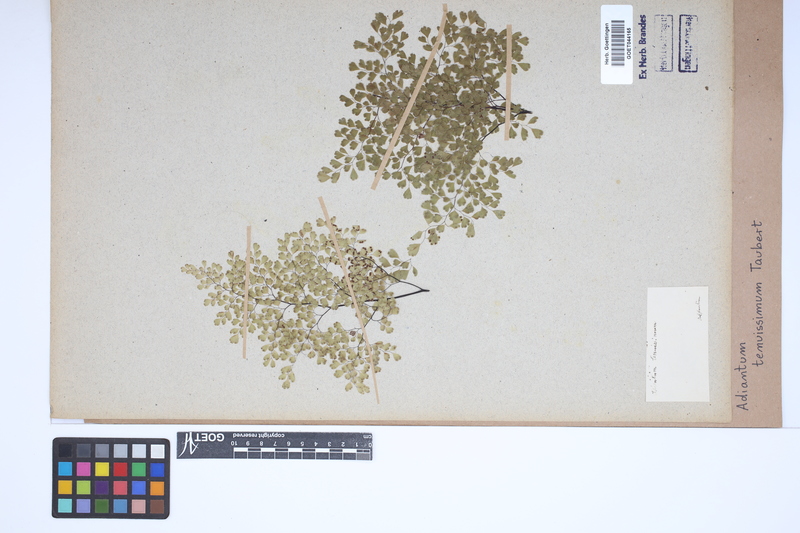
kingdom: Plantae
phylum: Tracheophyta
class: Polypodiopsida
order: Polypodiales
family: Pteridaceae
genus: Adiantopsis
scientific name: Adiantopsis senae
